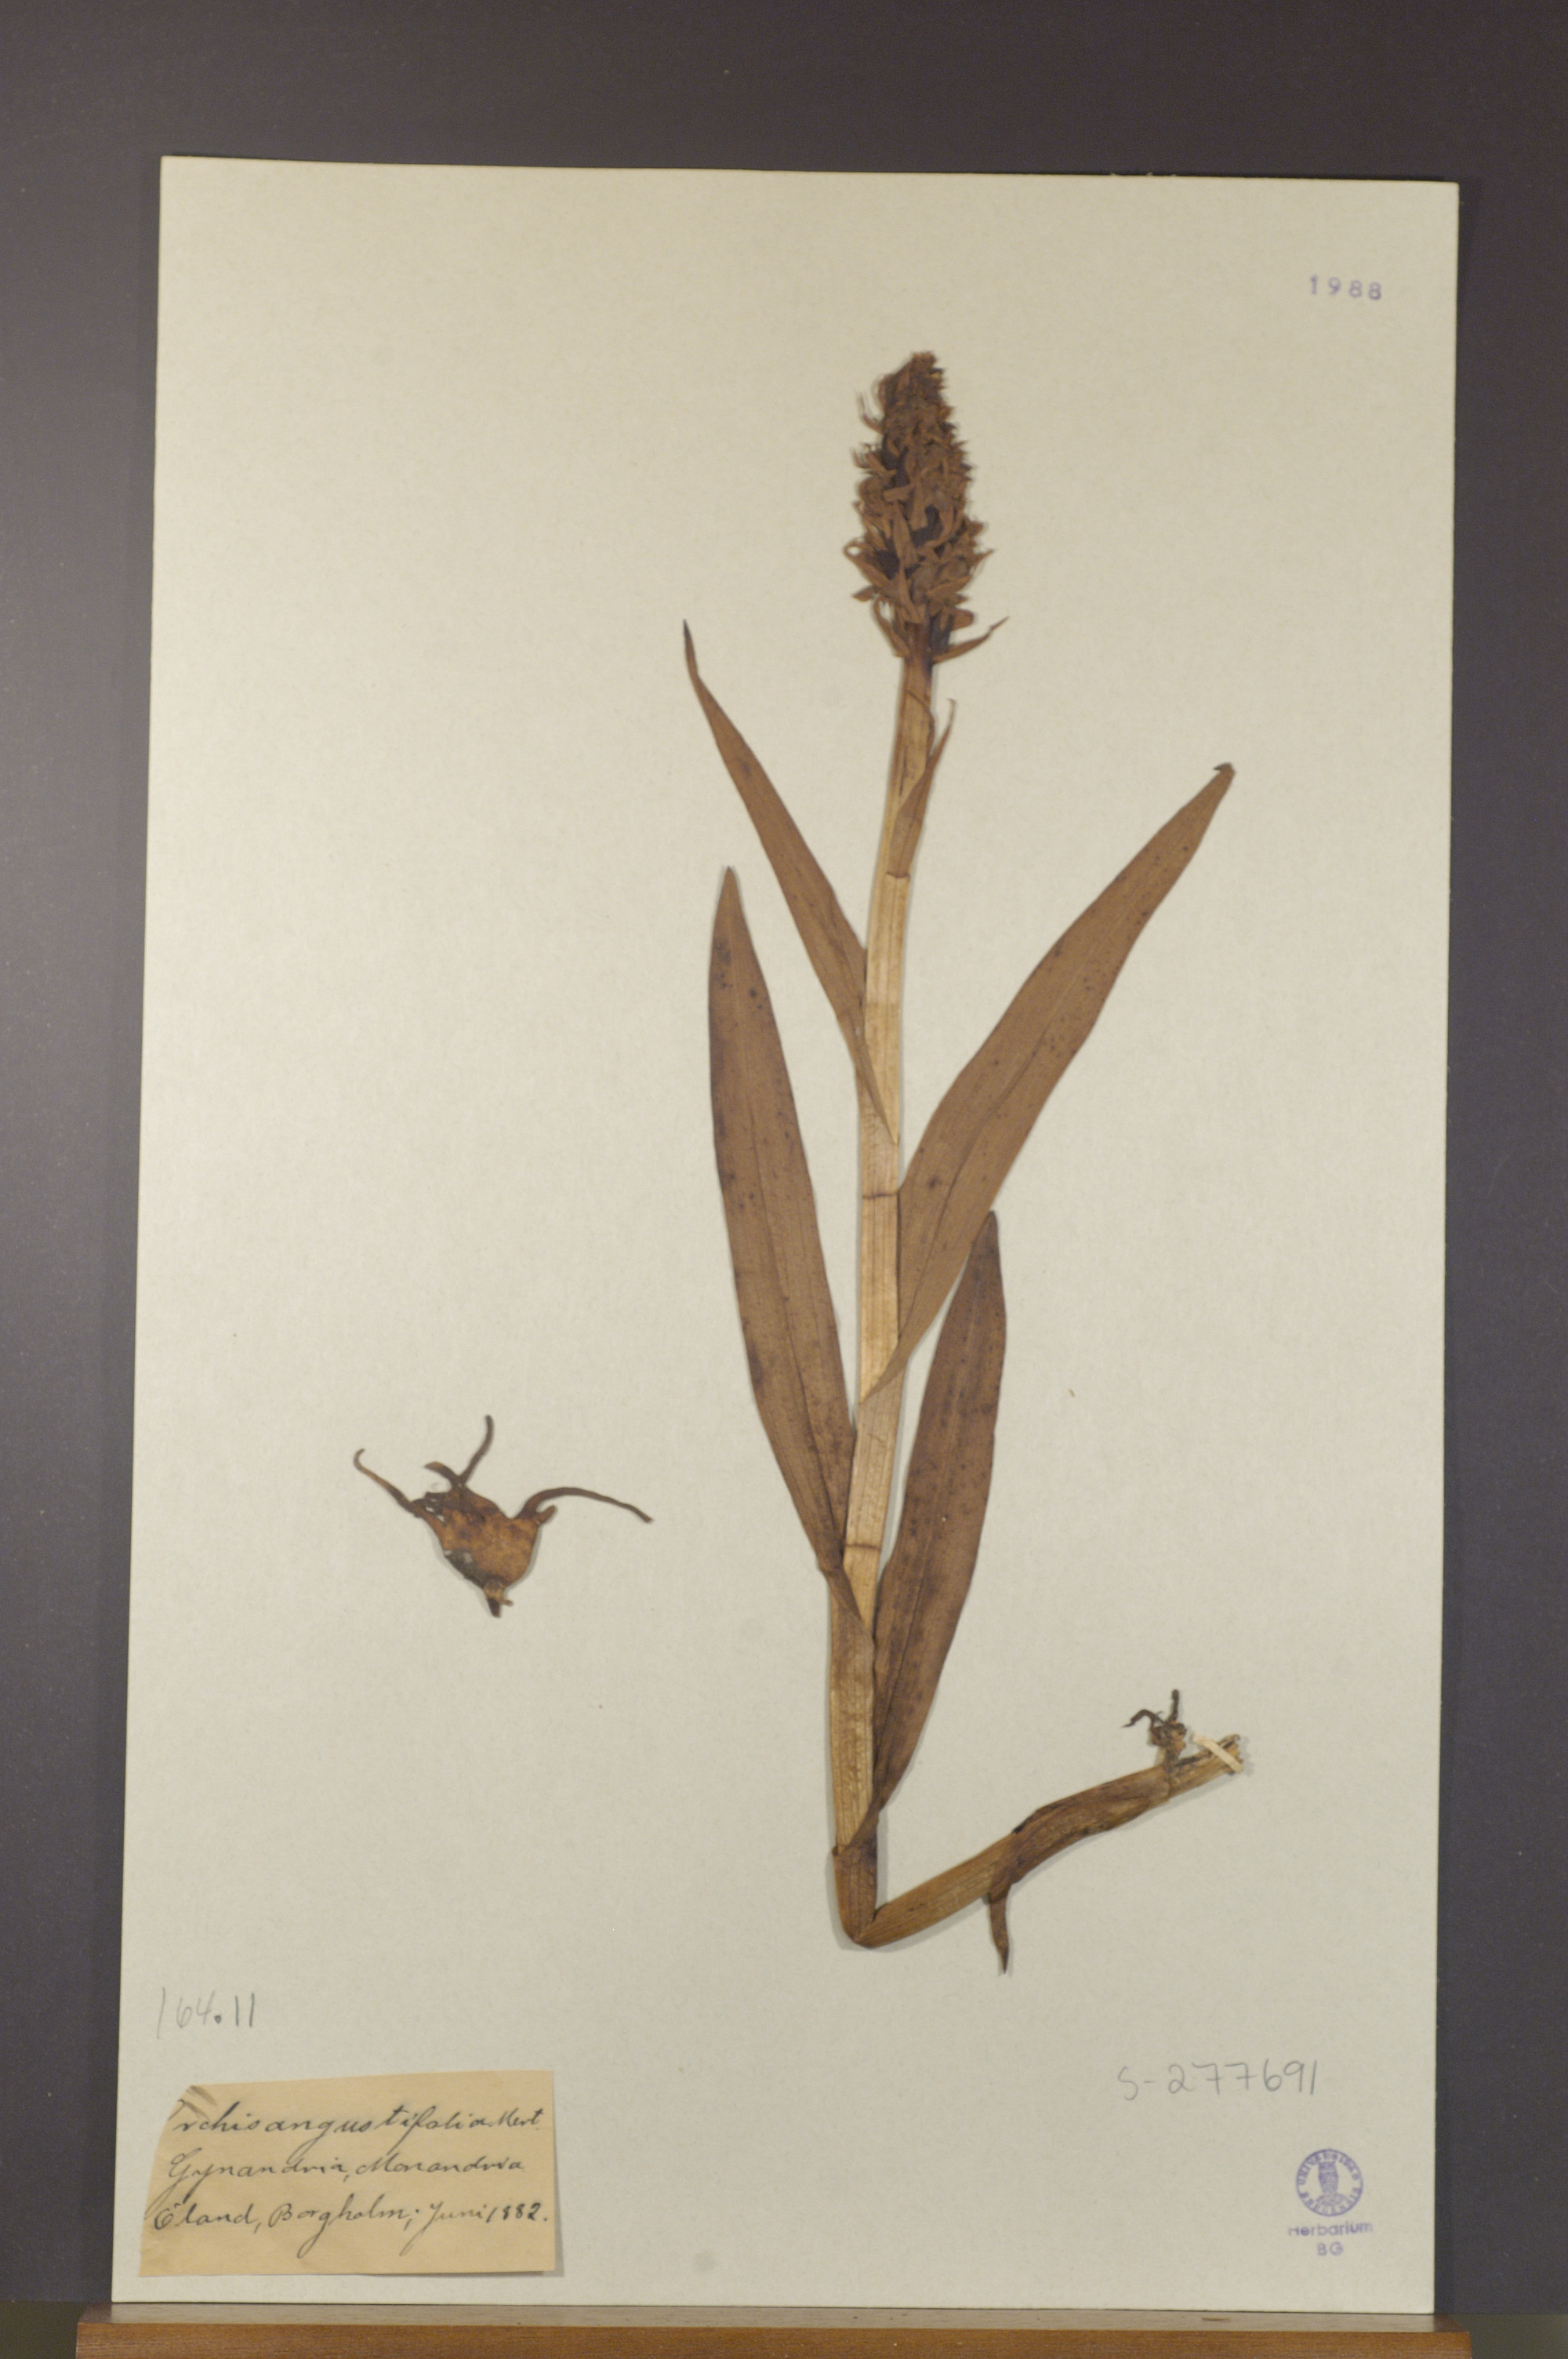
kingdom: Plantae
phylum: Tracheophyta
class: Liliopsida
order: Asparagales
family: Orchidaceae
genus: Dactylorhiza
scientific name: Dactylorhiza incarnata
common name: Early marsh-orchid
